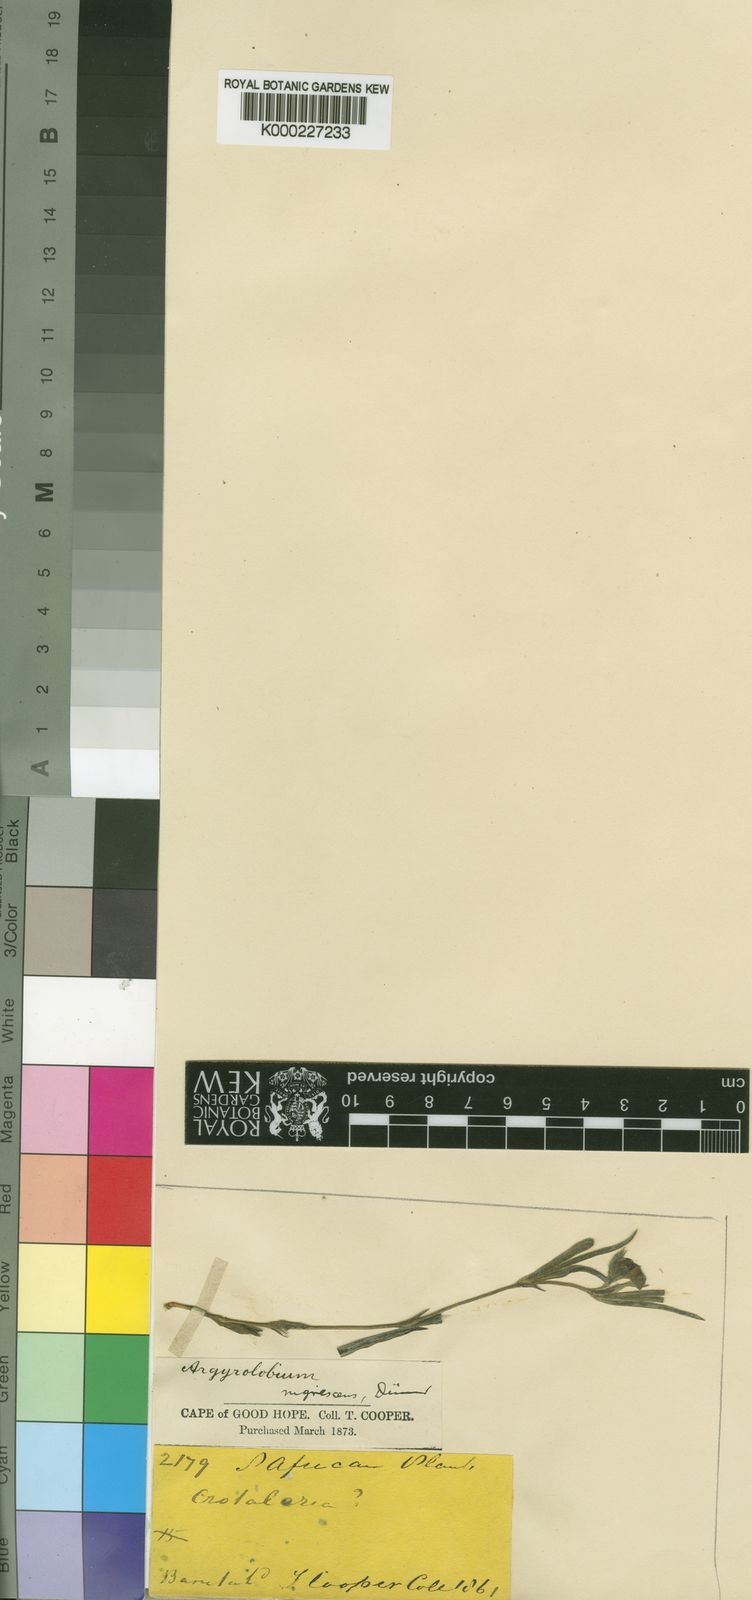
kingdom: Plantae
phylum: Tracheophyta
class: Magnoliopsida
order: Fabales
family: Fabaceae
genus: Argyrolobium
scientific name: Argyrolobium nigrescens
